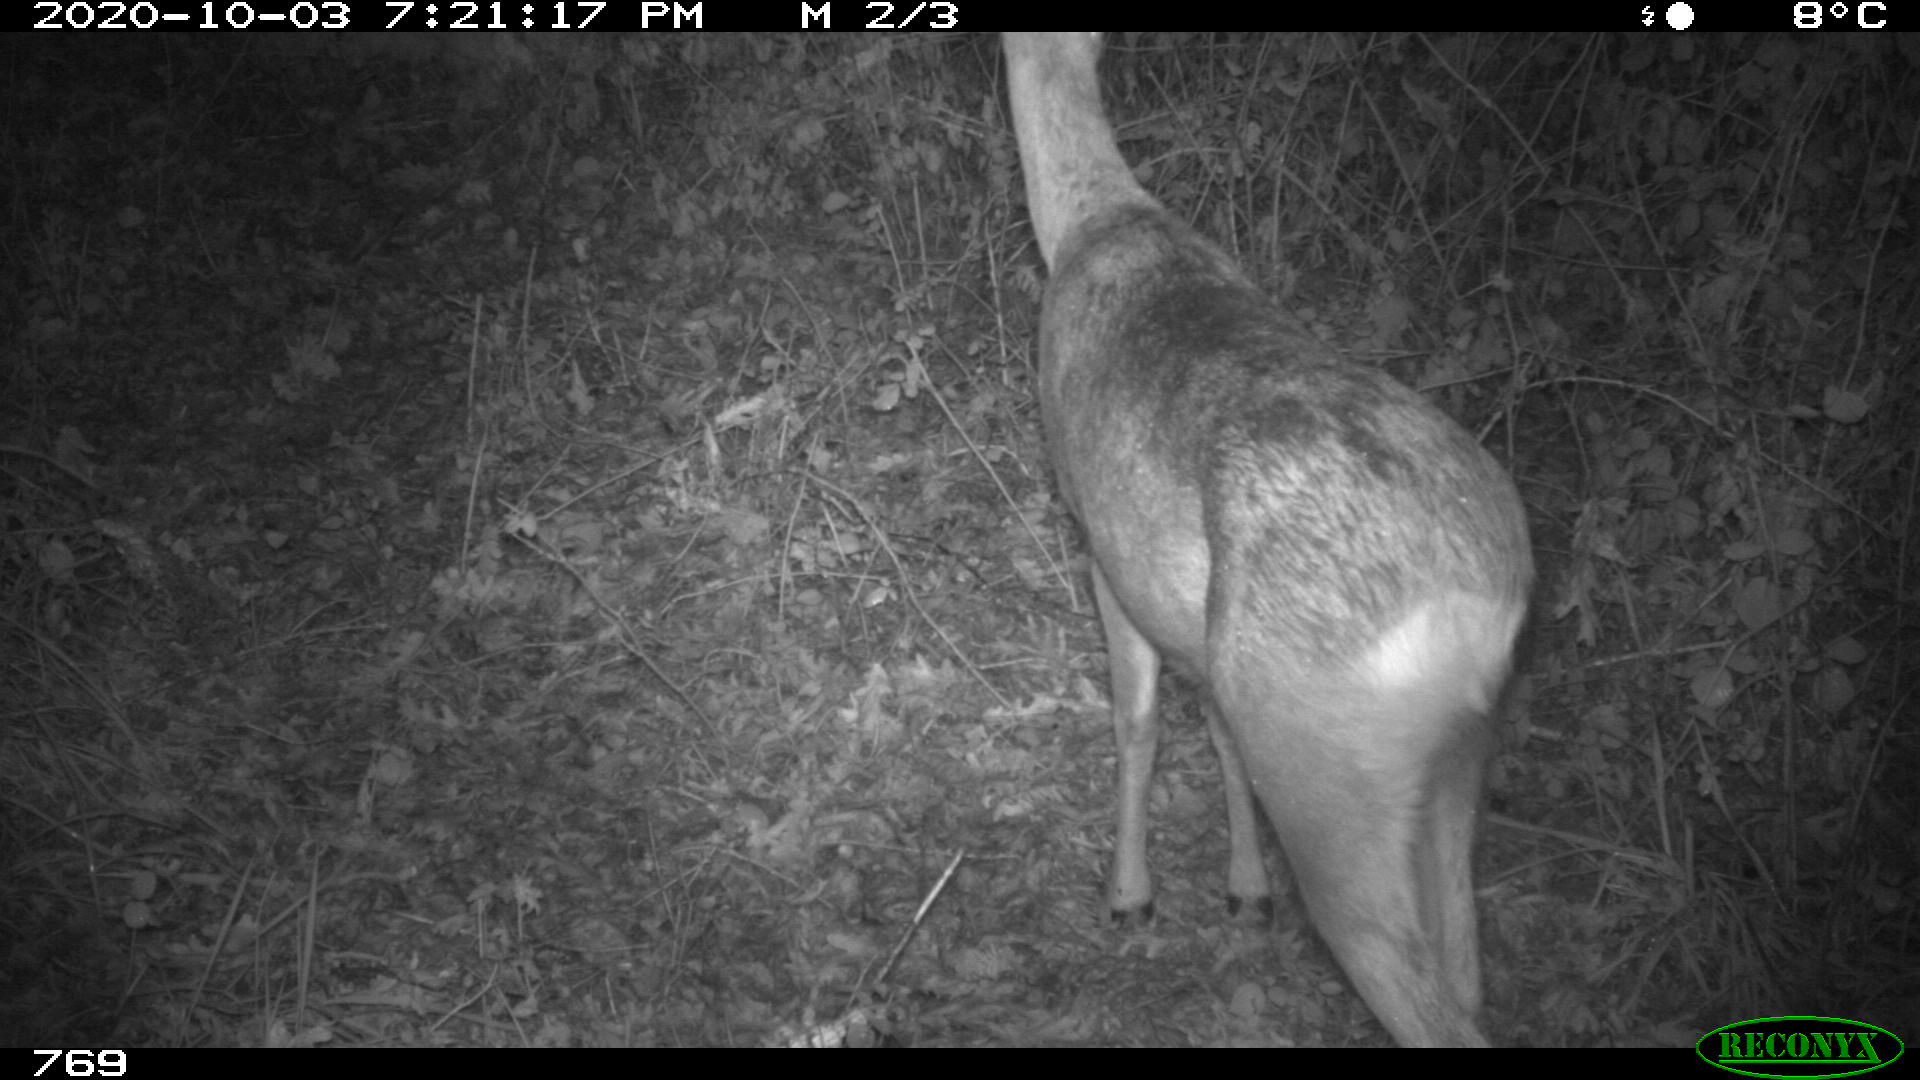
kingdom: Animalia
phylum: Chordata
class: Mammalia
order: Artiodactyla
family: Cervidae
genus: Capreolus
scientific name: Capreolus capreolus
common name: Western roe deer
